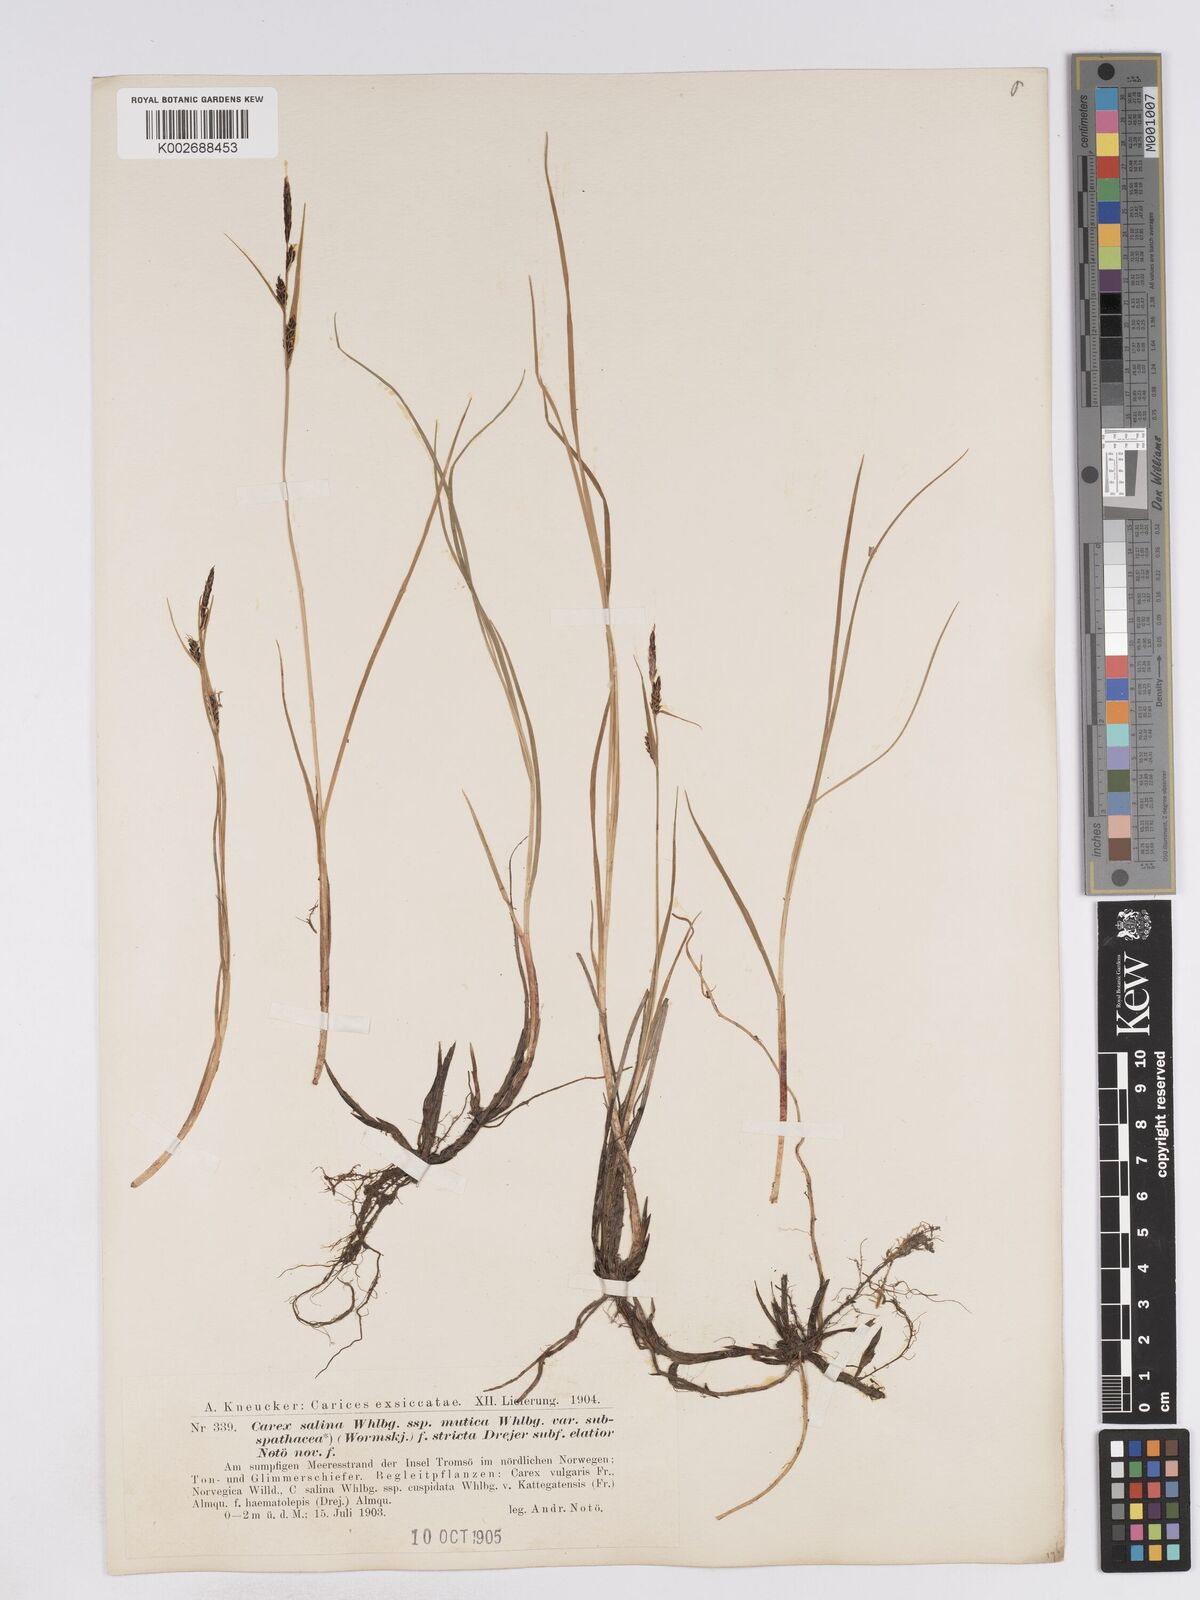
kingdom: Plantae
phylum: Tracheophyta
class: Liliopsida
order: Poales
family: Cyperaceae
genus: Carex
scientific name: Carex subspathacea
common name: Hoppner's sedge
